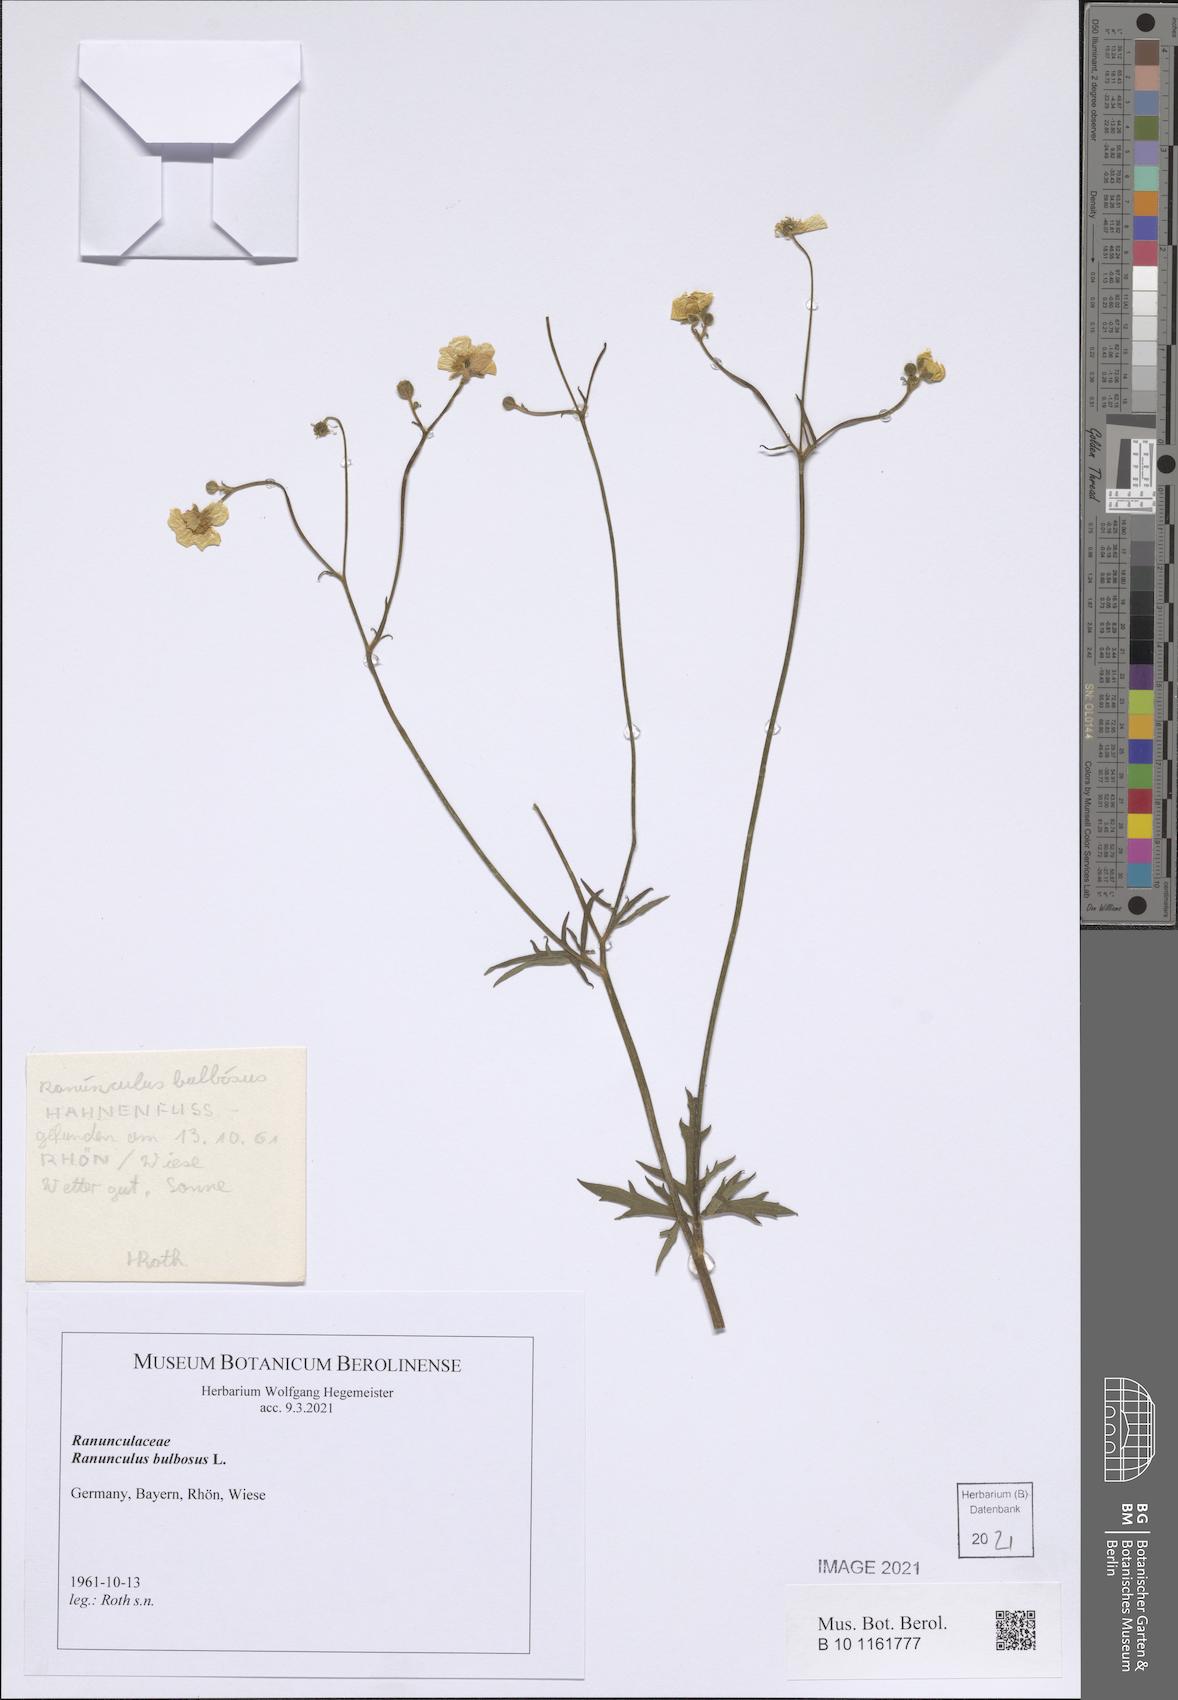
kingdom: Plantae
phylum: Tracheophyta
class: Magnoliopsida
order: Ranunculales
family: Ranunculaceae
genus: Ranunculus
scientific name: Ranunculus bulbosus
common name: Bulbous buttercup
